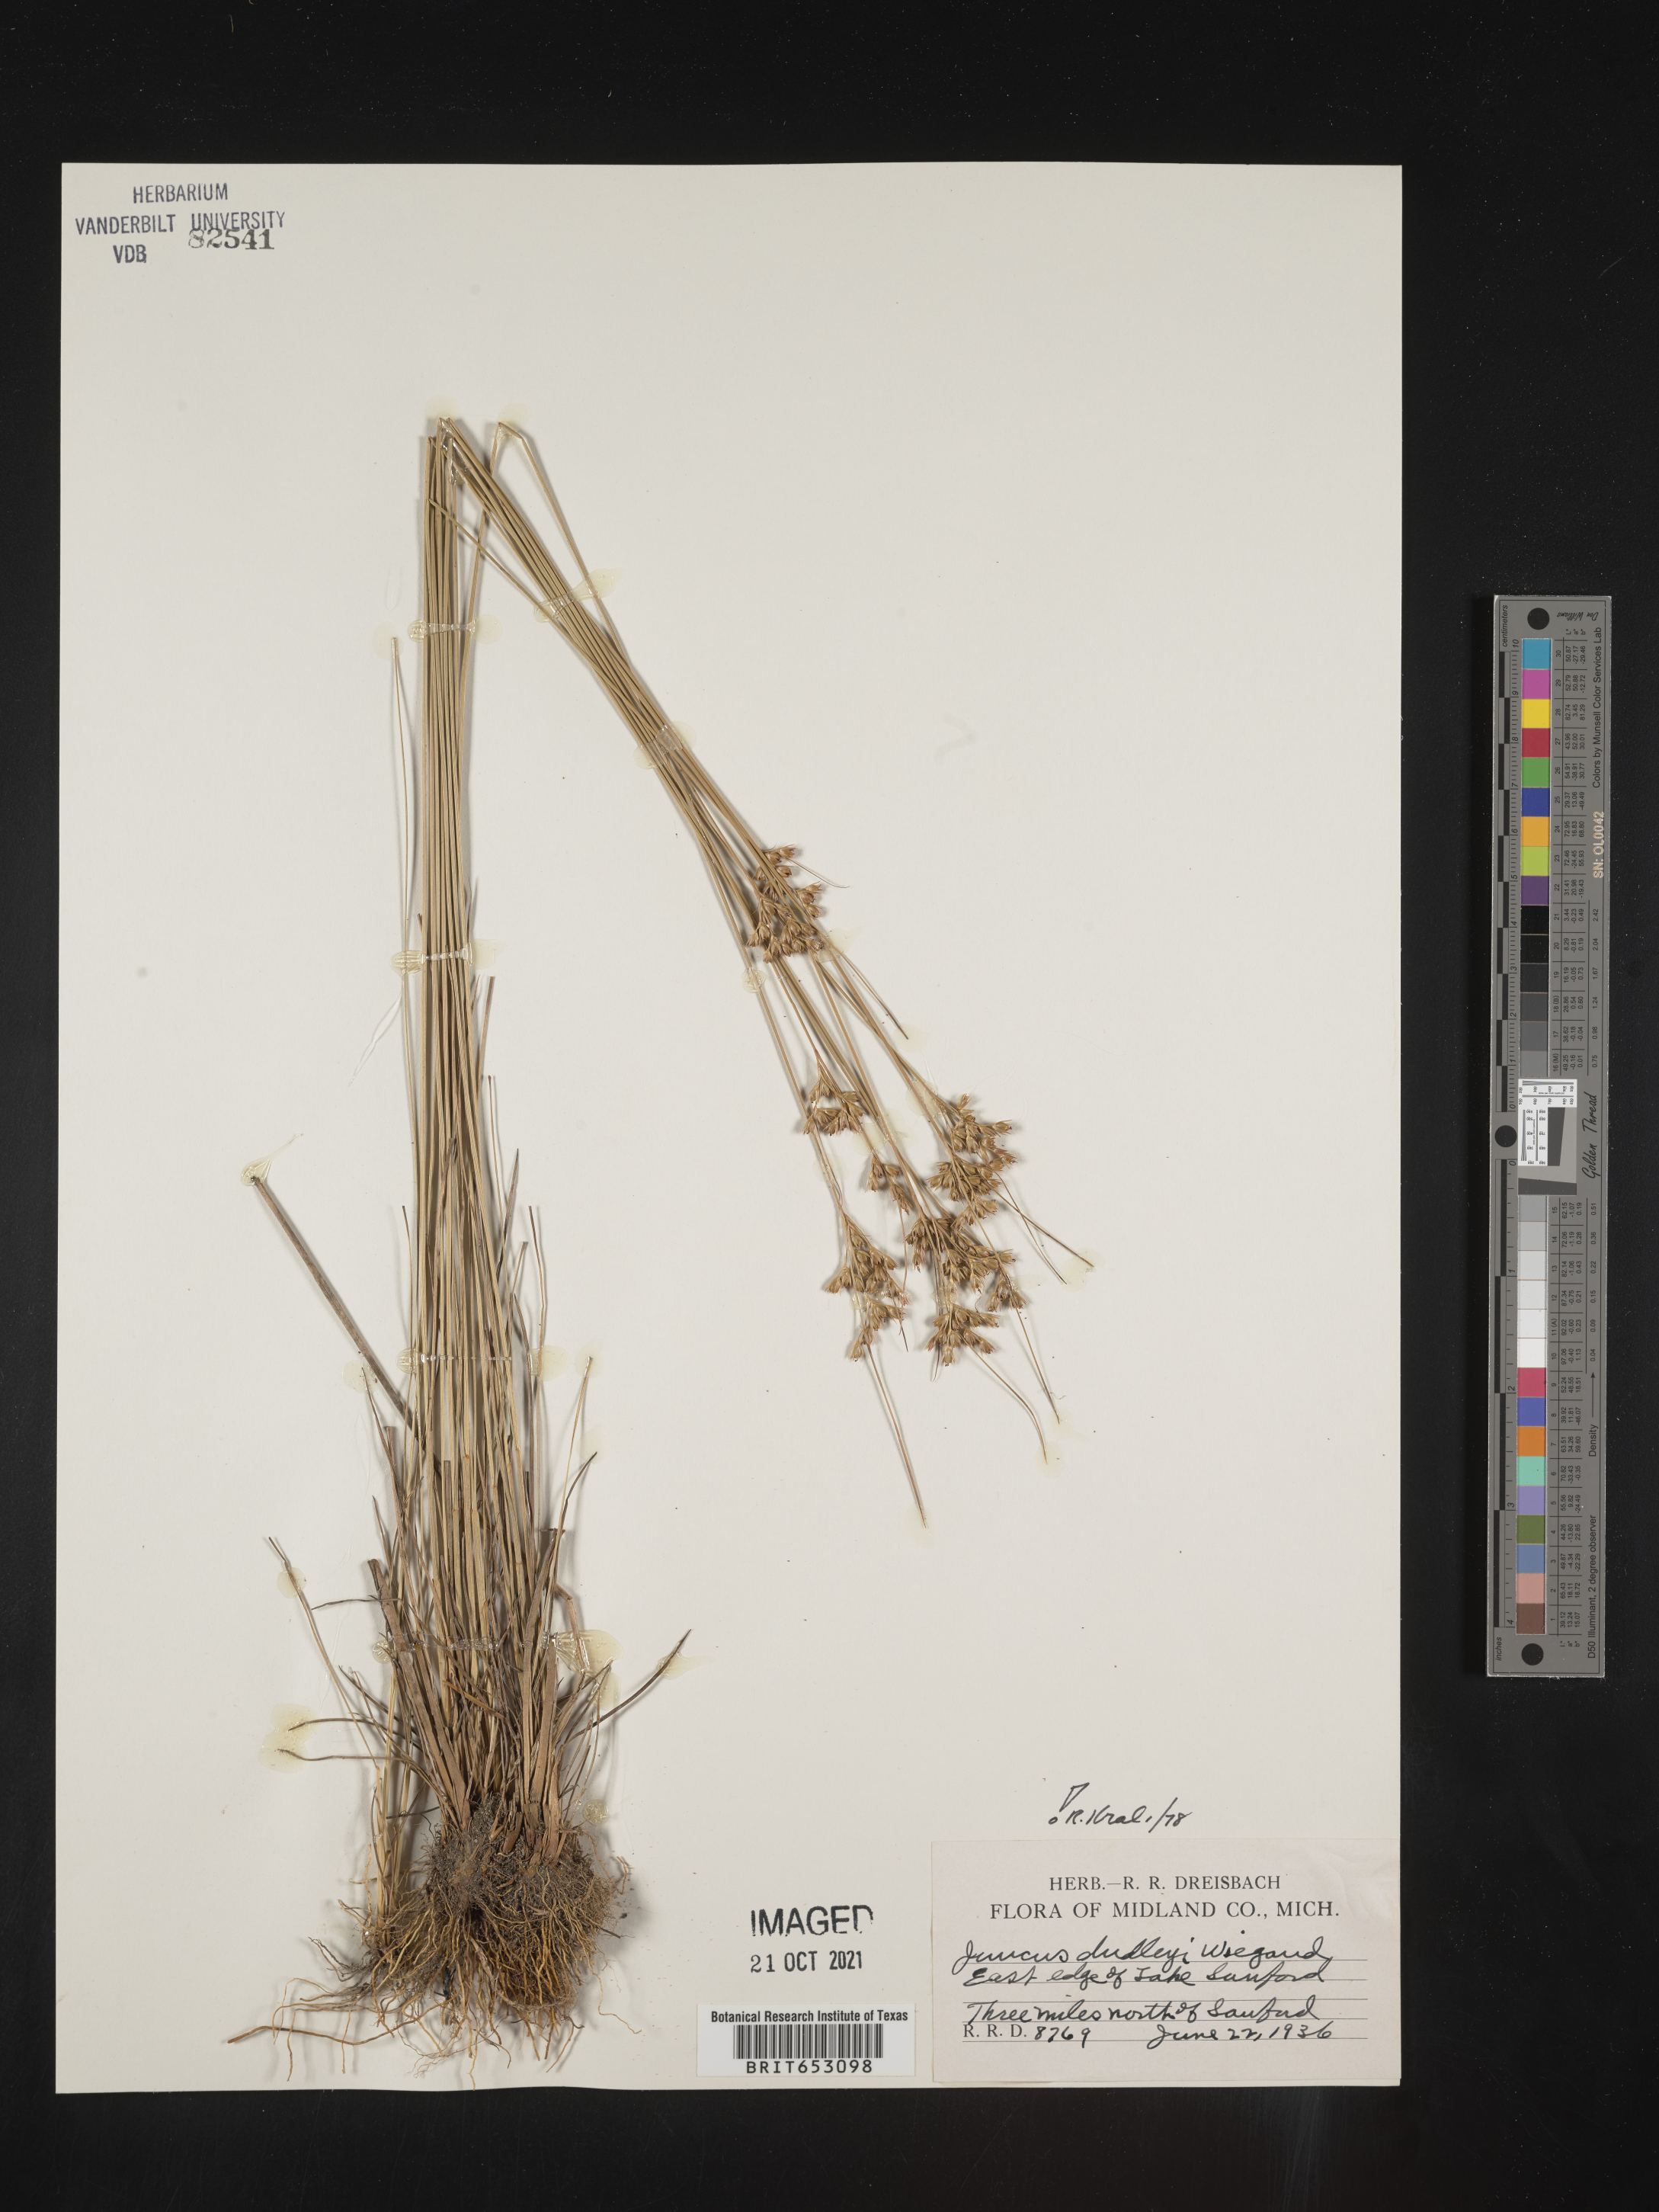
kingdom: Plantae
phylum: Tracheophyta
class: Liliopsida
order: Poales
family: Juncaceae
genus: Juncus
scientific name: Juncus dudleyi
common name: Dudley's rush
